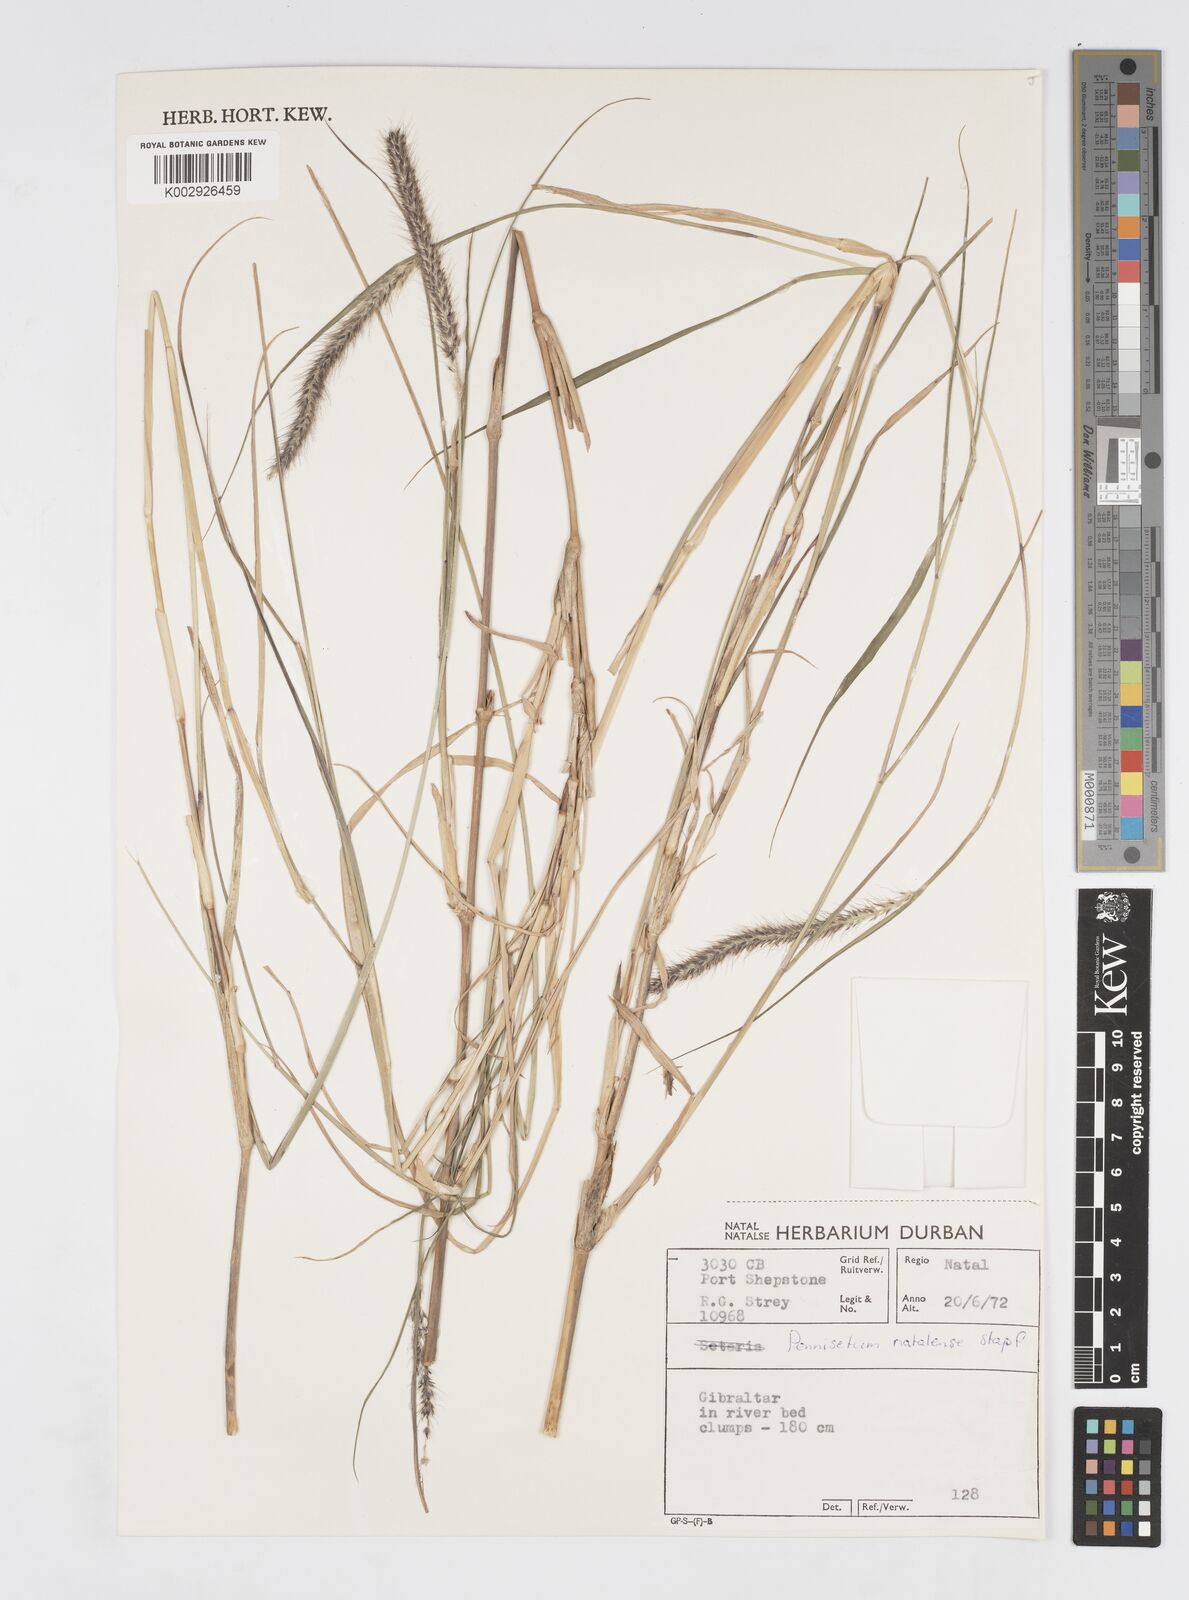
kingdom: Plantae
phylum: Tracheophyta
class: Liliopsida
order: Poales
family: Poaceae
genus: Cenchrus
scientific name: Cenchrus caudatus
